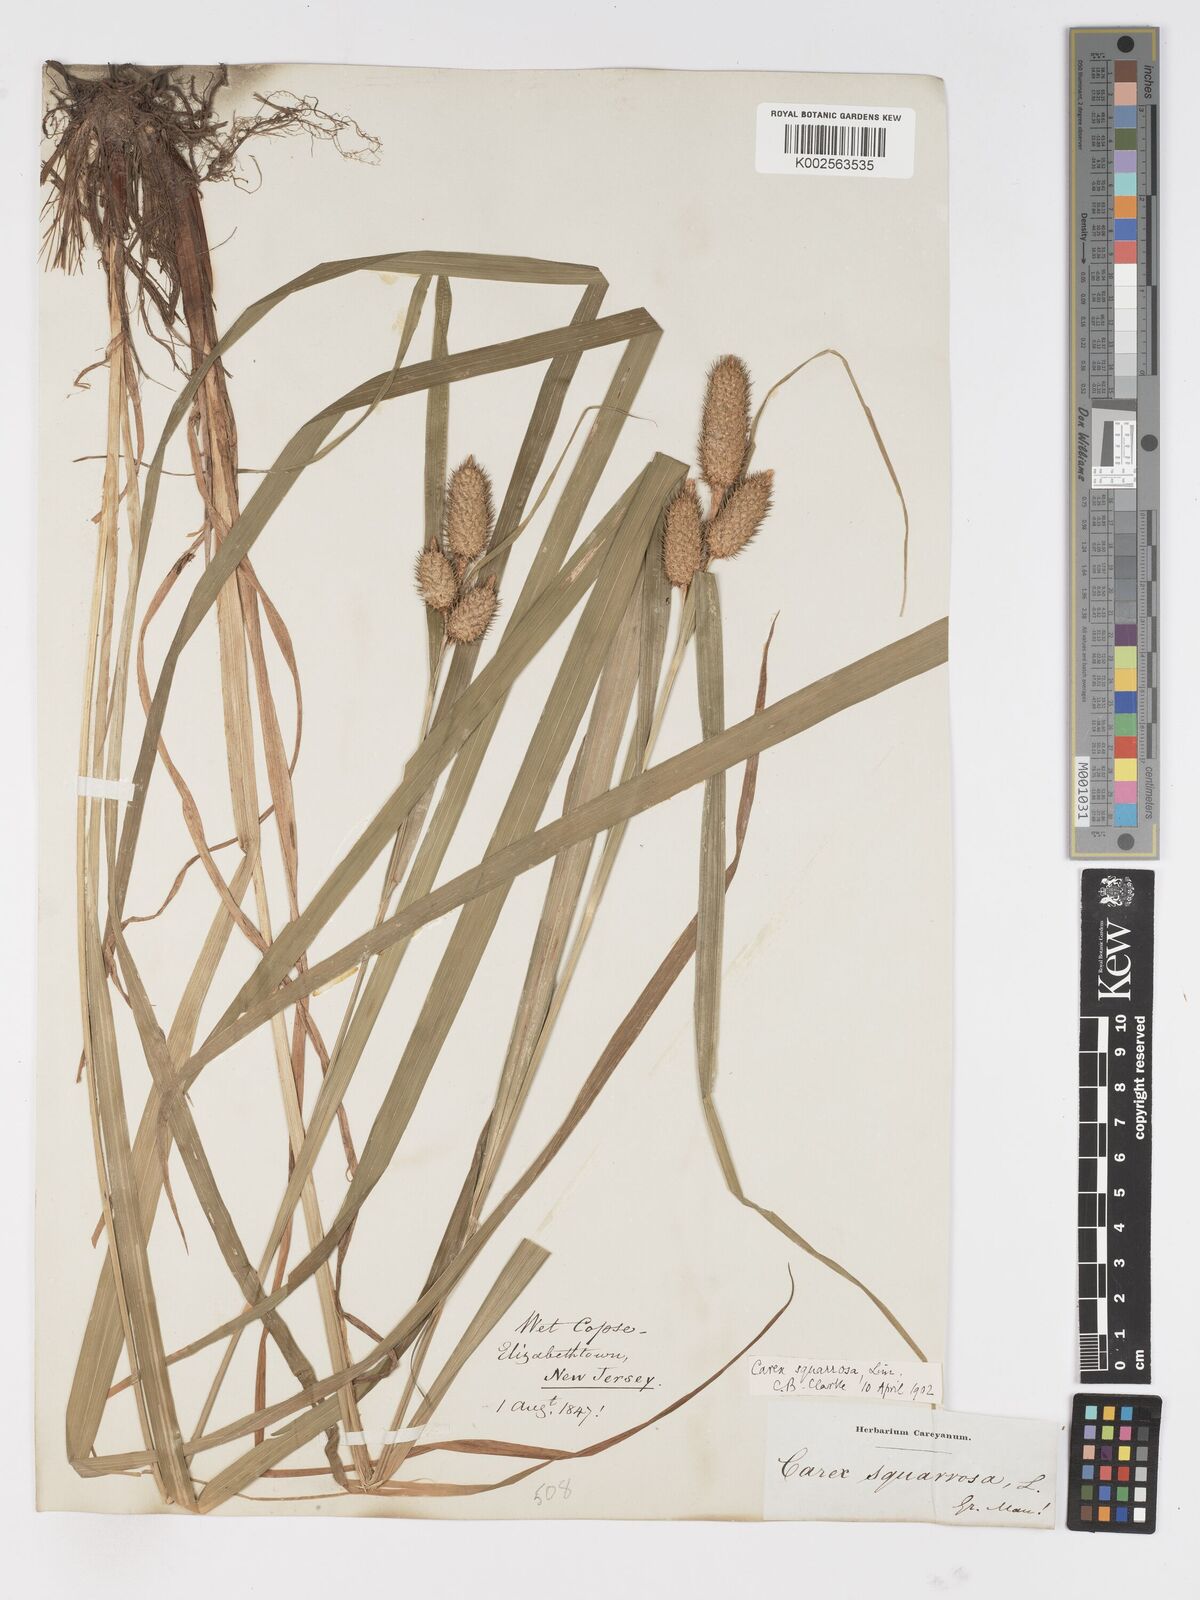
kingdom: Plantae
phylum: Tracheophyta
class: Liliopsida
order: Poales
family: Cyperaceae
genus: Carex
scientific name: Carex squarrosa
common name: Narrow-leaved cattail sedge
